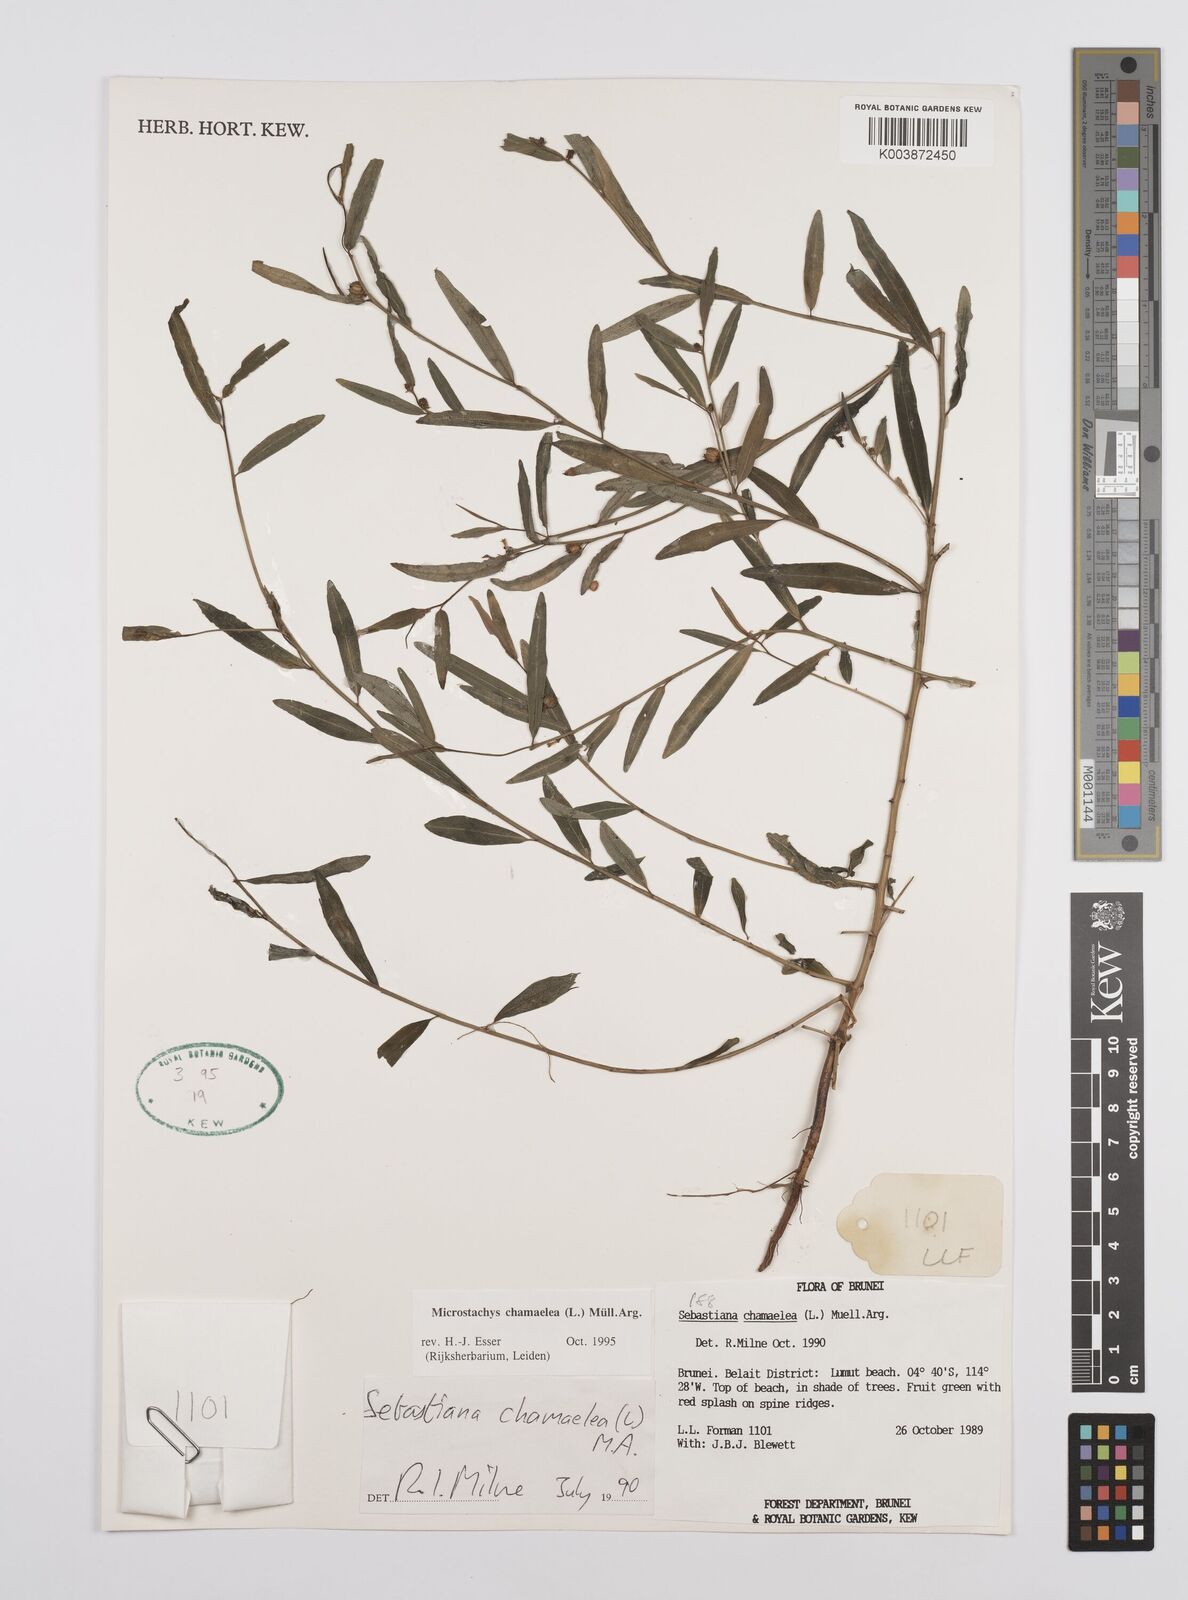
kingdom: Plantae
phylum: Tracheophyta
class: Magnoliopsida
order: Malpighiales
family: Euphorbiaceae
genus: Microstachys
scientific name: Microstachys chamaelea
